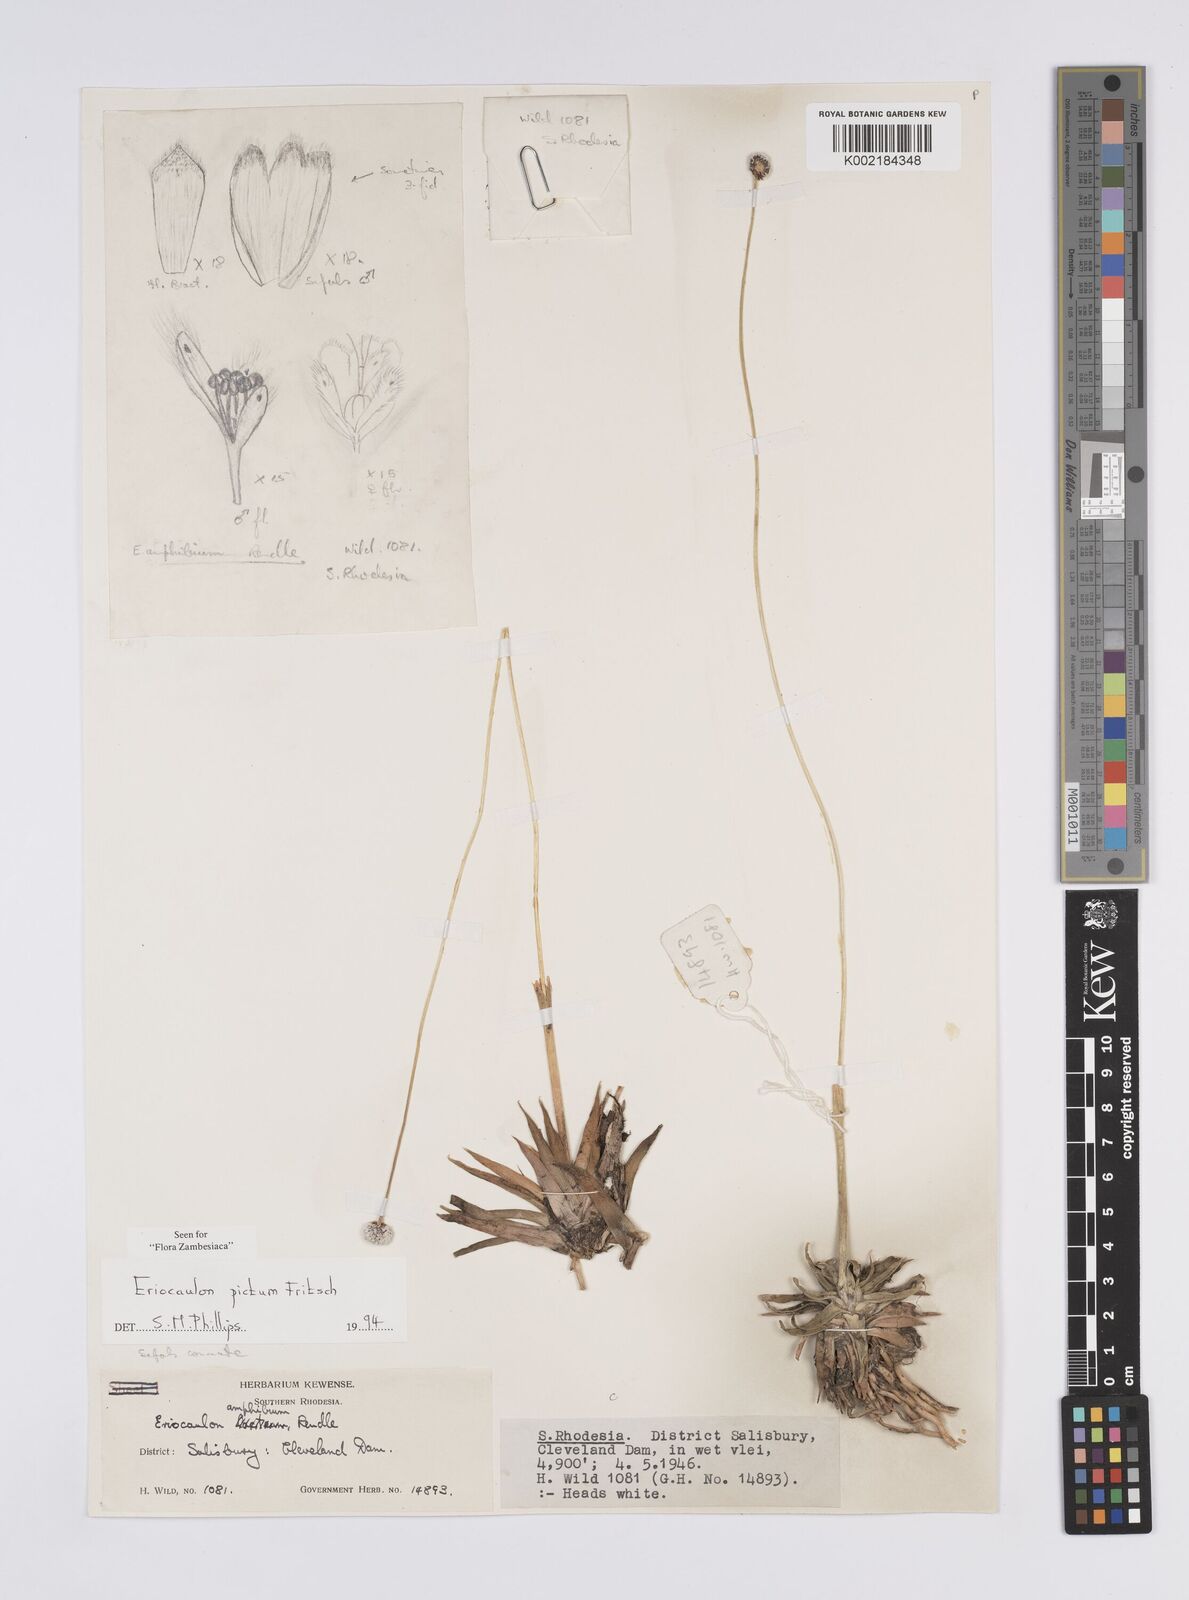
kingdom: Plantae
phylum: Tracheophyta
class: Liliopsida
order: Poales
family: Eriocaulaceae
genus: Eriocaulon
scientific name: Eriocaulon pictum
